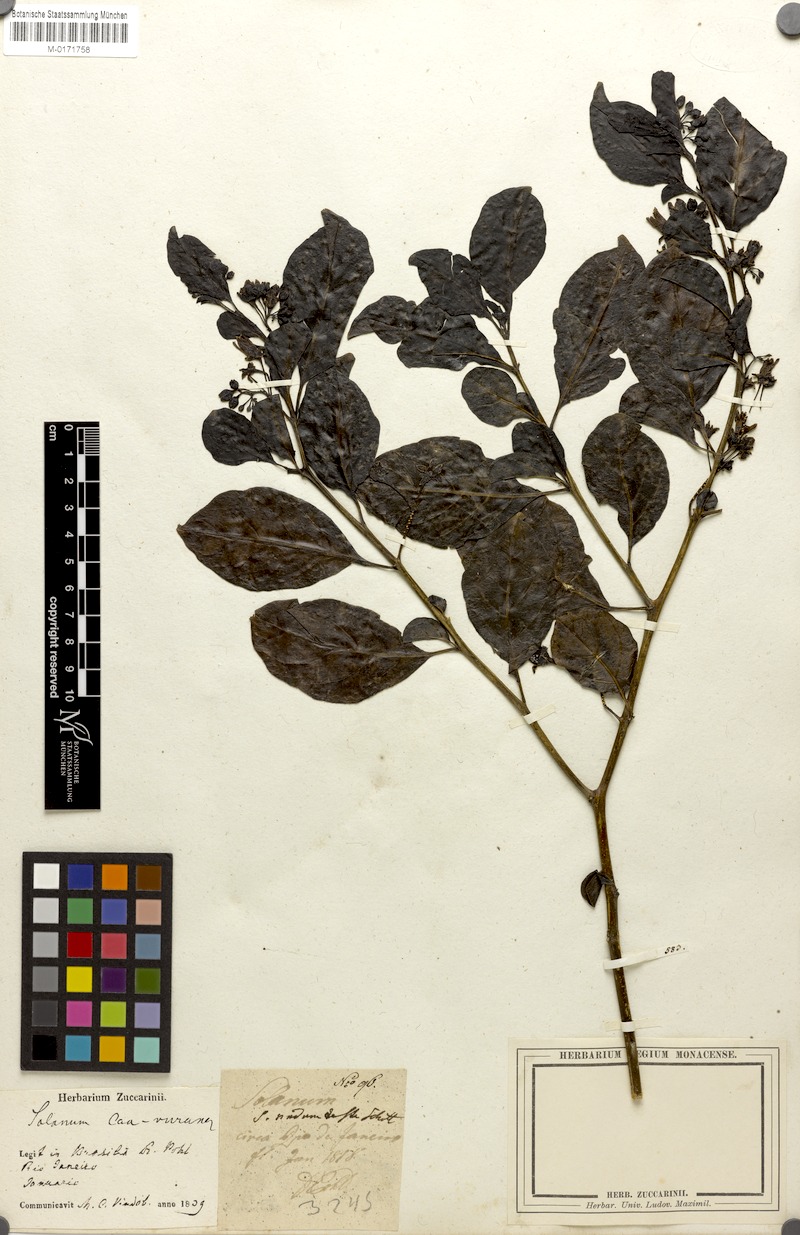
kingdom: Plantae
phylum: Tracheophyta
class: Magnoliopsida
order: Solanales
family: Solanaceae
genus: Solanum
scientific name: Solanum caavurana
